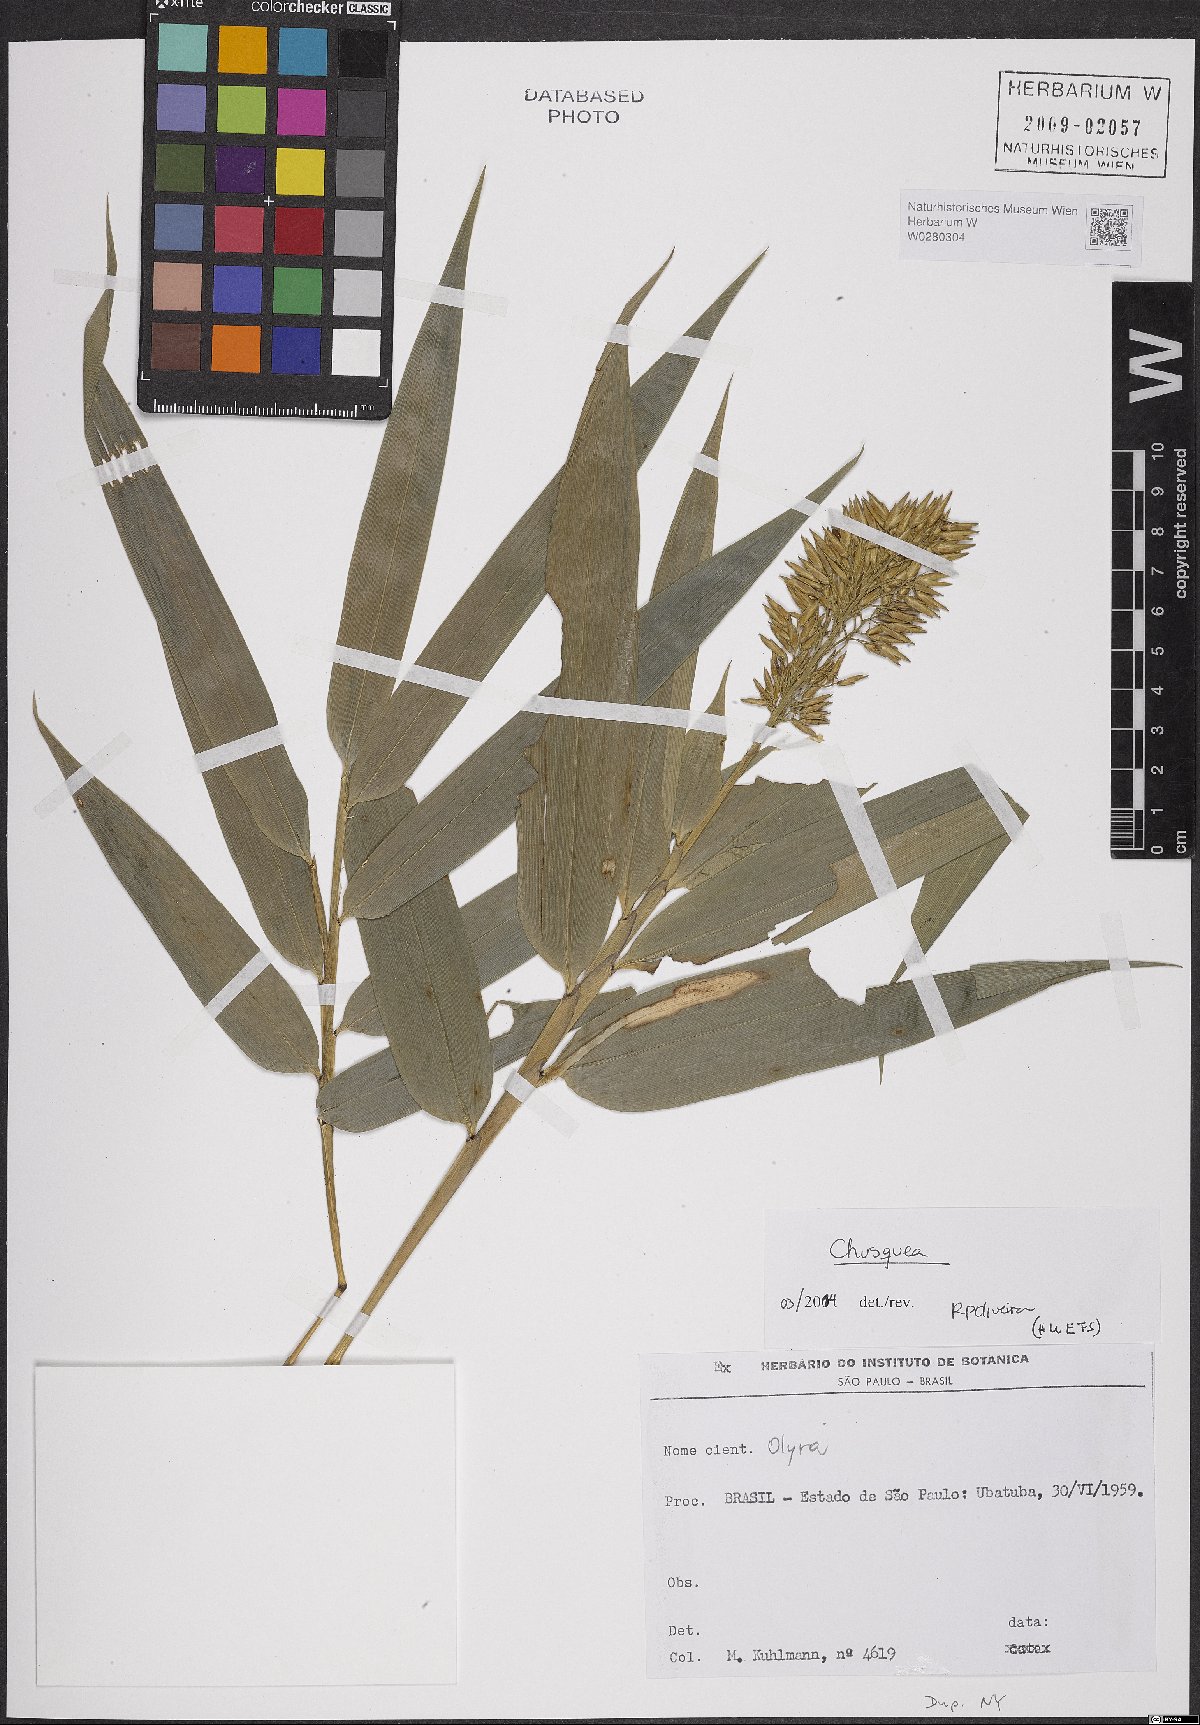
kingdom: Plantae
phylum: Tracheophyta
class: Liliopsida
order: Poales
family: Poaceae
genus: Chusquea
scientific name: Chusquea
